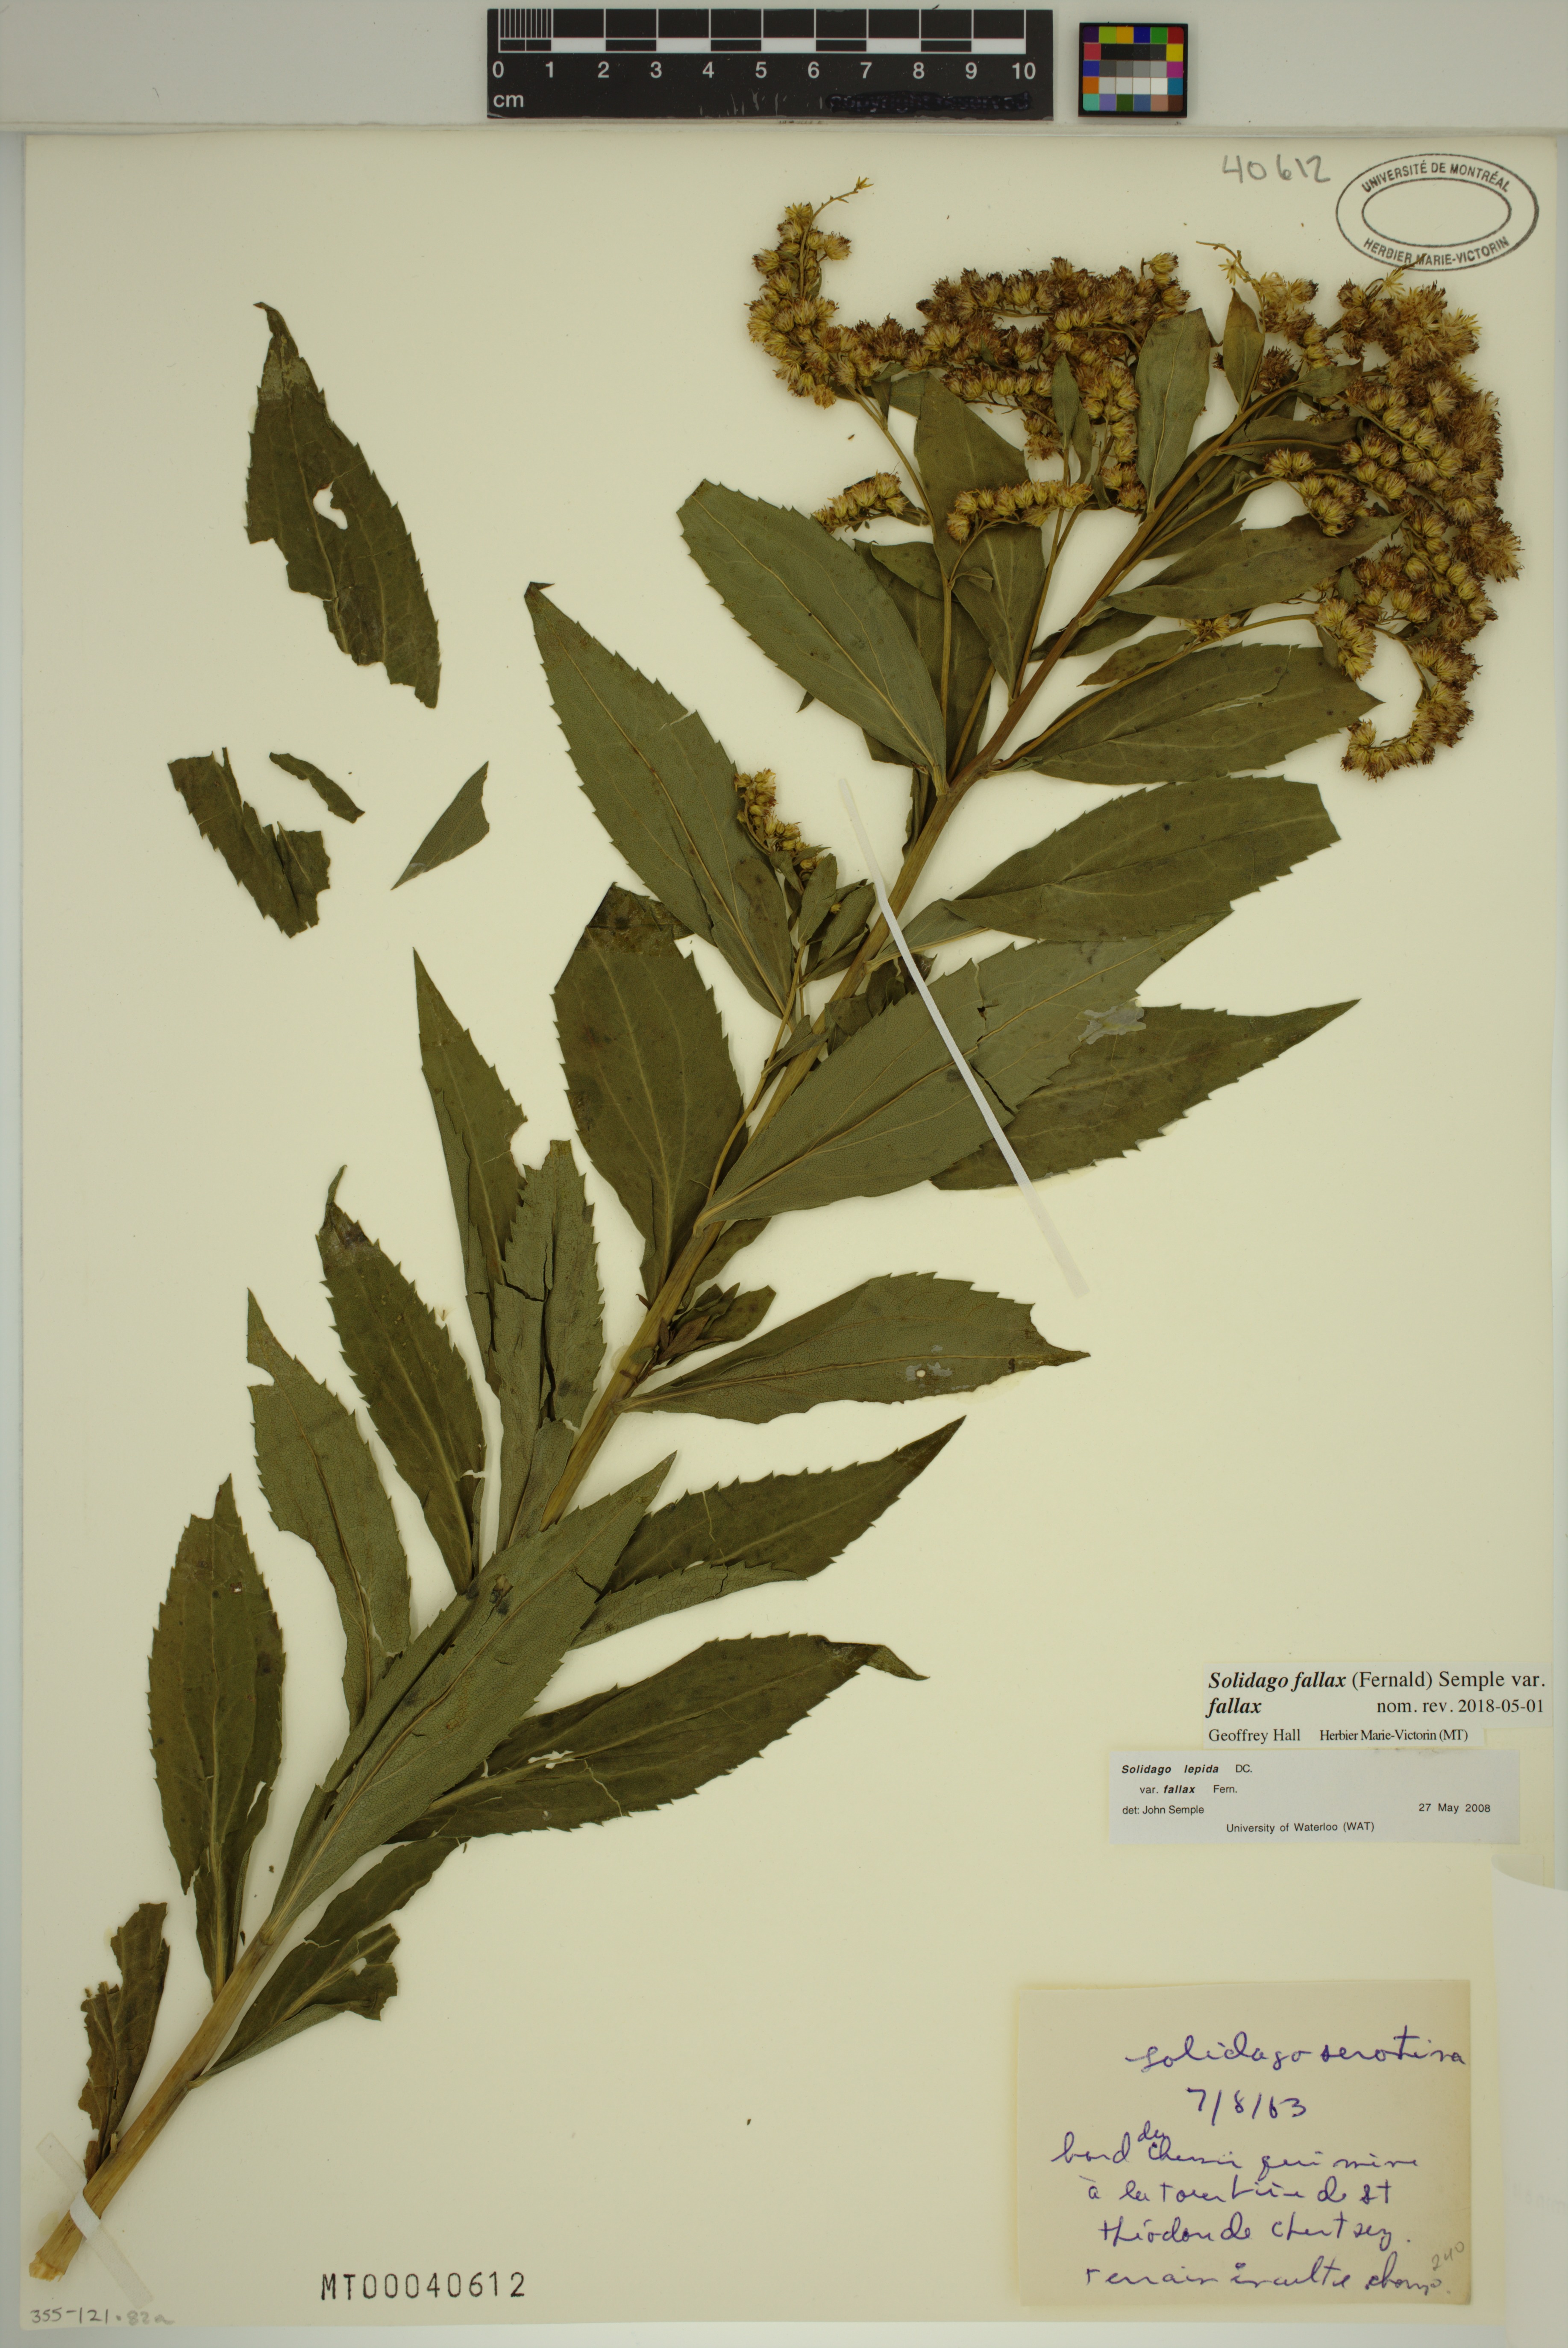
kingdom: Plantae
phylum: Tracheophyta
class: Magnoliopsida
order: Asterales
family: Asteraceae
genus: Solidago
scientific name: Solidago fallax
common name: Big-toothed canada goldenrod
